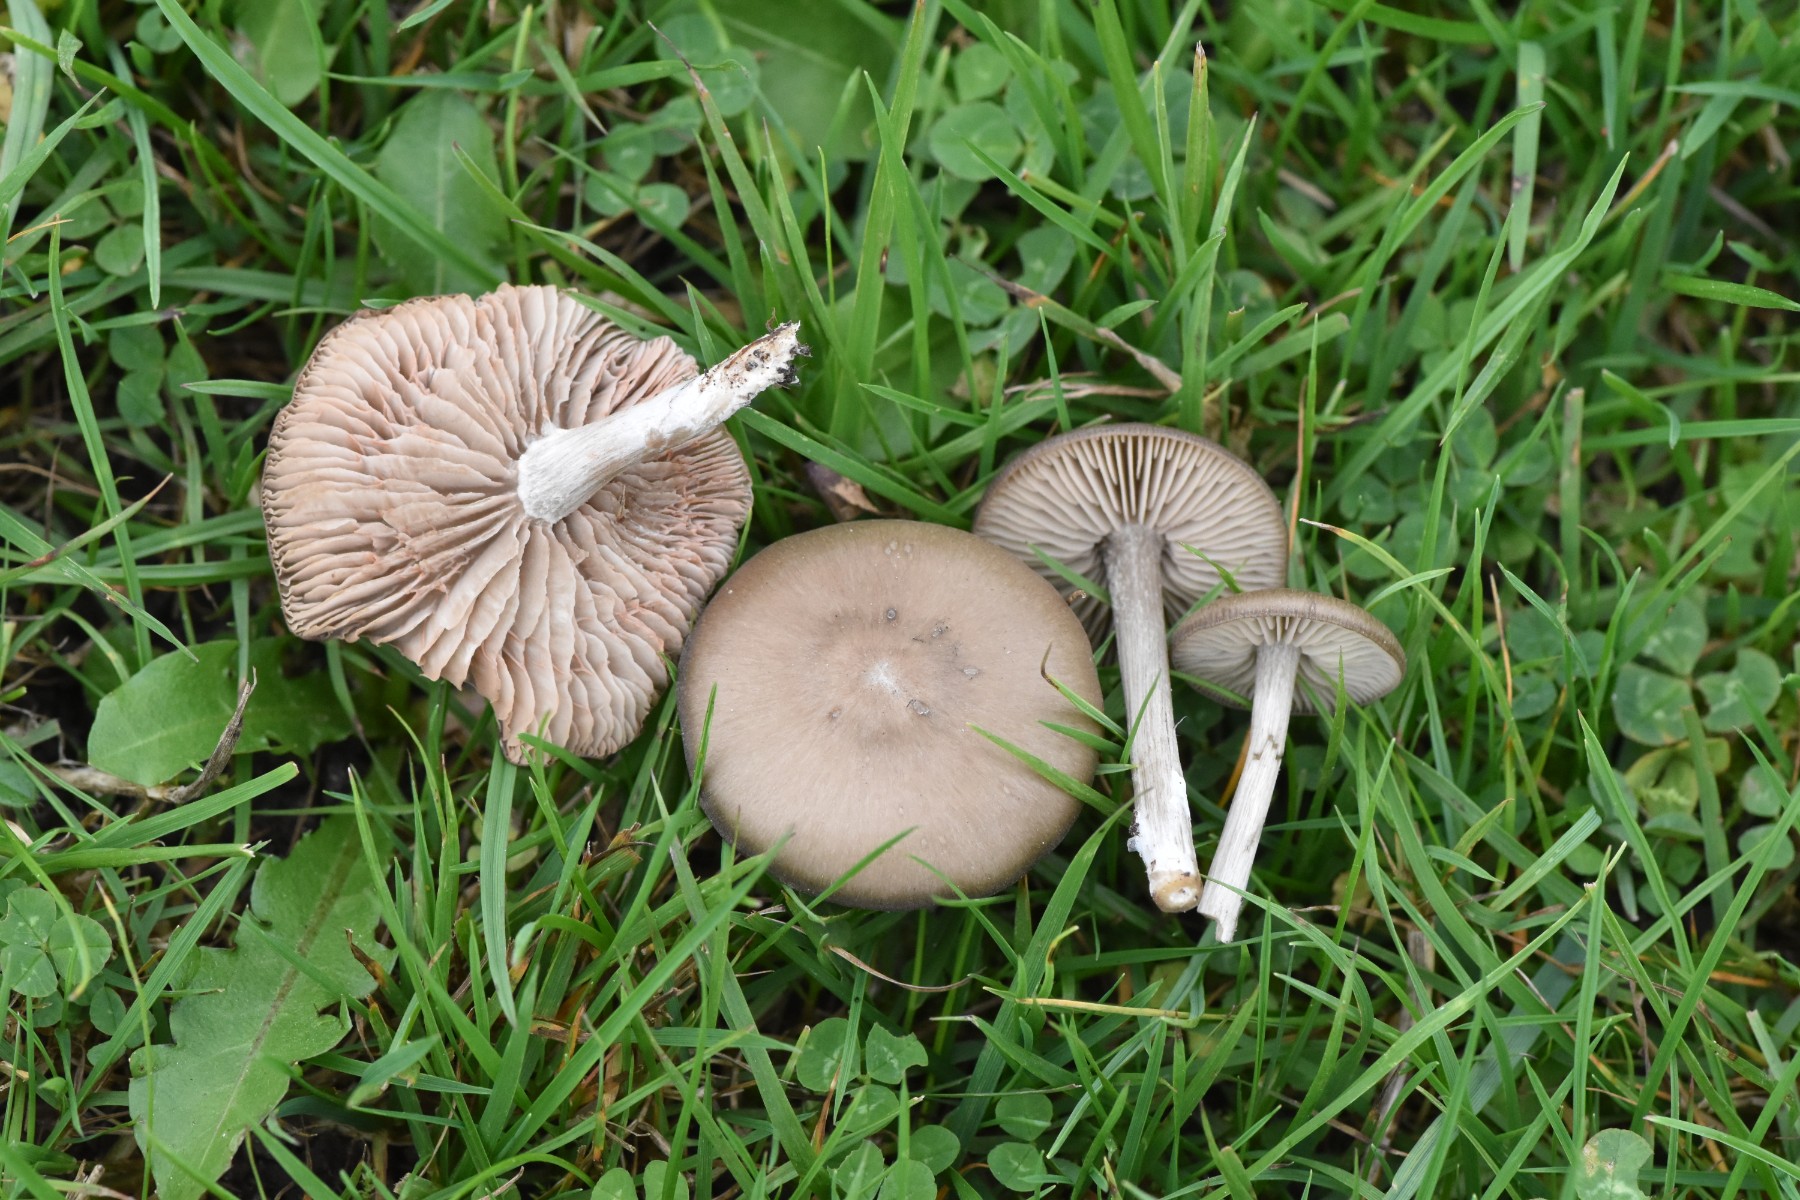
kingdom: Fungi
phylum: Basidiomycota
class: Agaricomycetes
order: Agaricales
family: Entolomataceae
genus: Entoloma
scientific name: Entoloma
